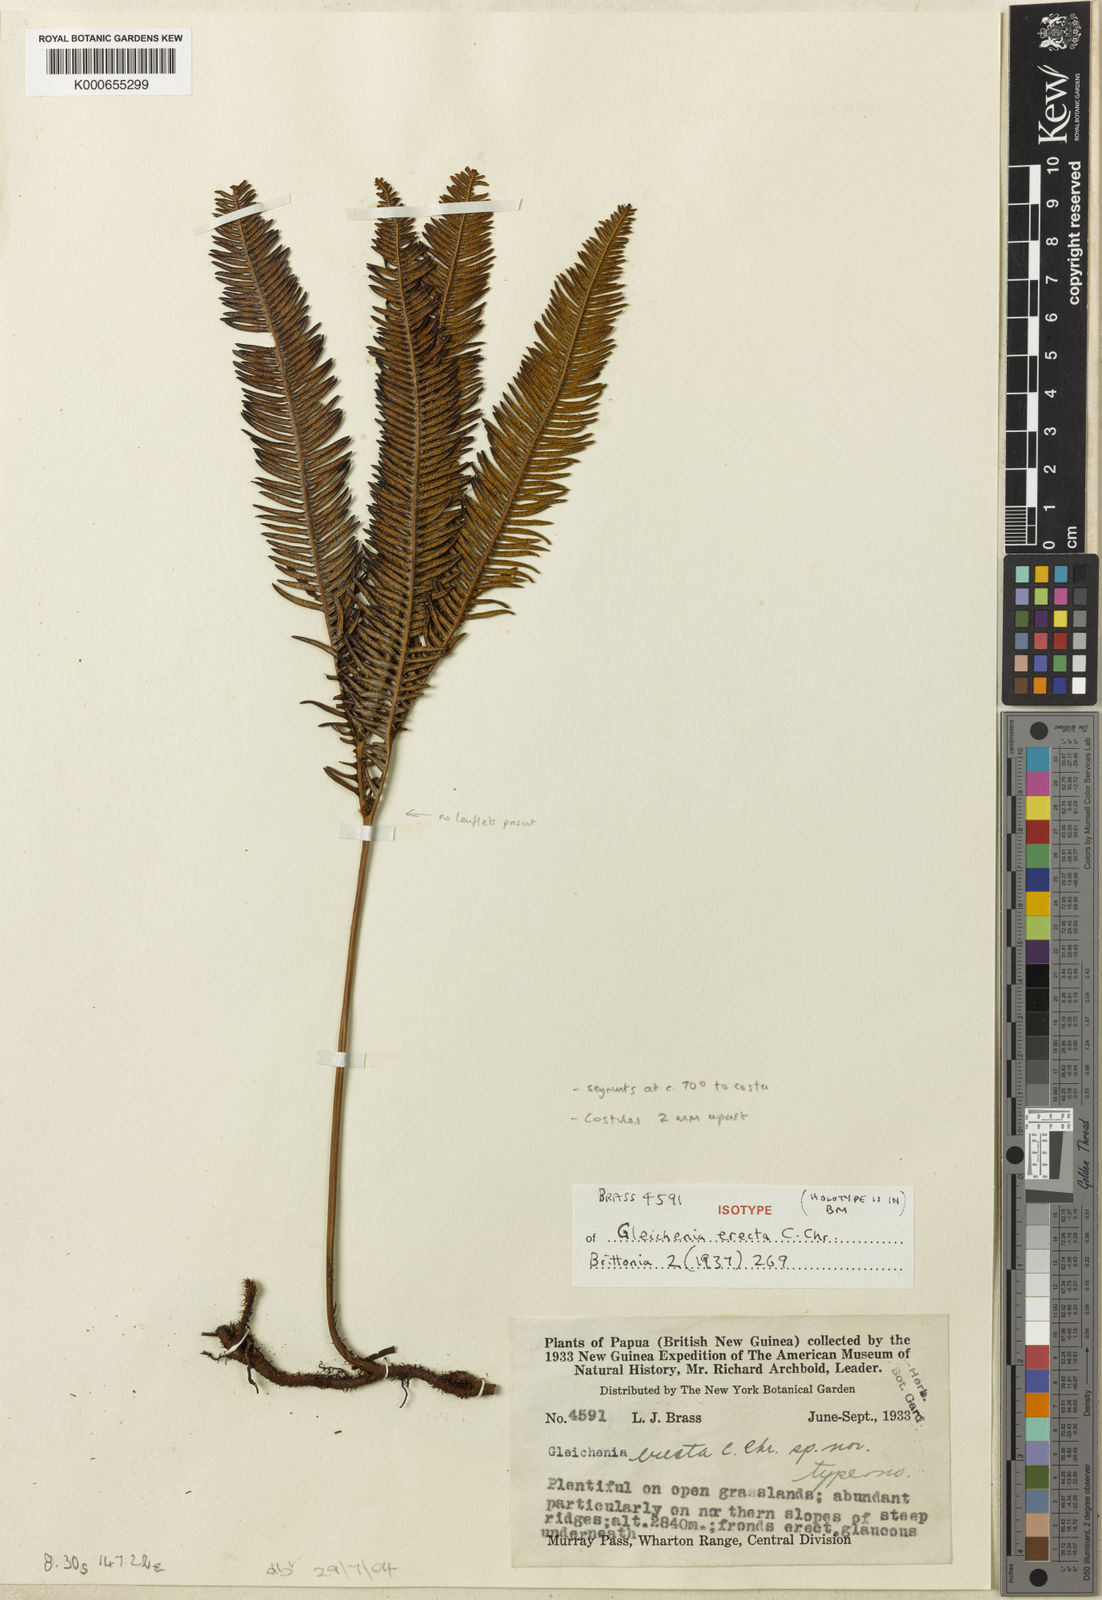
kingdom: Plantae
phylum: Tracheophyta
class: Polypodiopsida
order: Gleicheniales
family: Gleicheniaceae
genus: Sticherus
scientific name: Sticherus erectus
